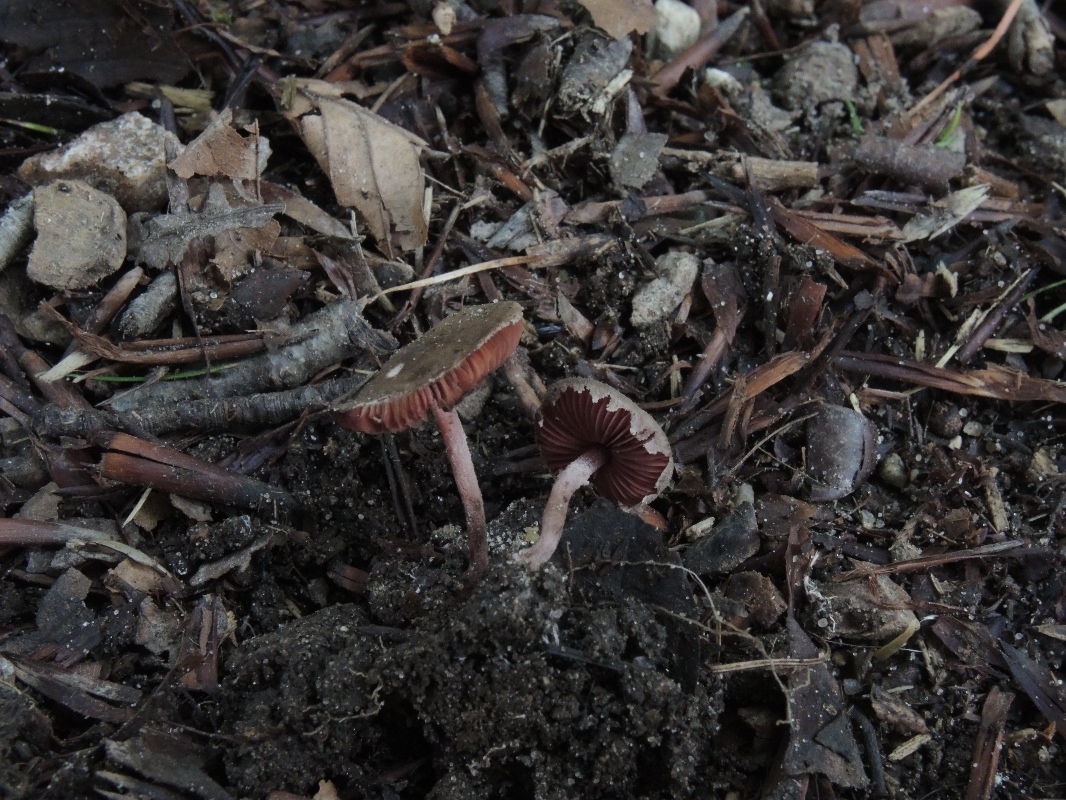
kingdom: Fungi
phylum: Basidiomycota
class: Agaricomycetes
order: Agaricales
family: Agaricaceae
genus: Melanophyllum
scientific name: Melanophyllum haematospermum
